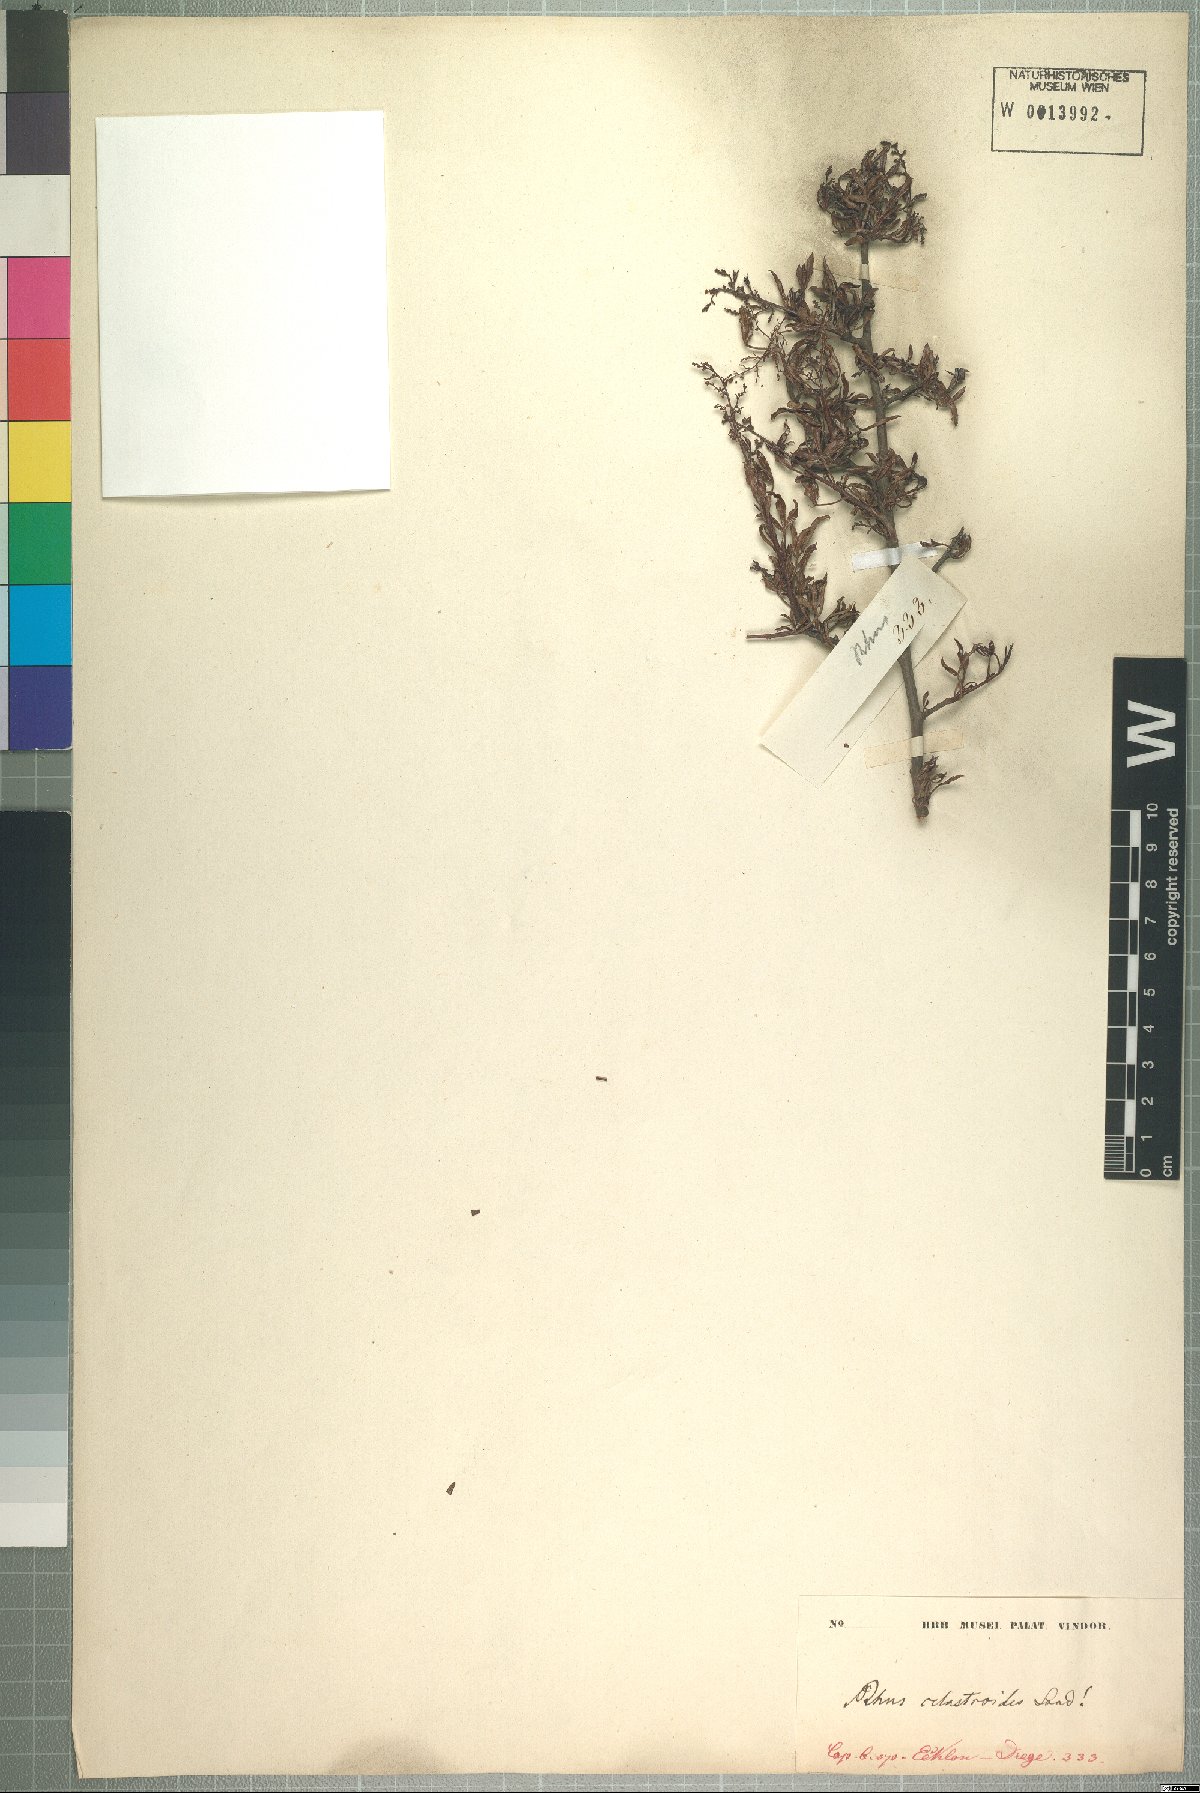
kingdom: Plantae
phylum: Tracheophyta
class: Magnoliopsida
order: Sapindales
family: Anacardiaceae
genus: Searsia
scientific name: Searsia undulata
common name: Namaqua kunibush
